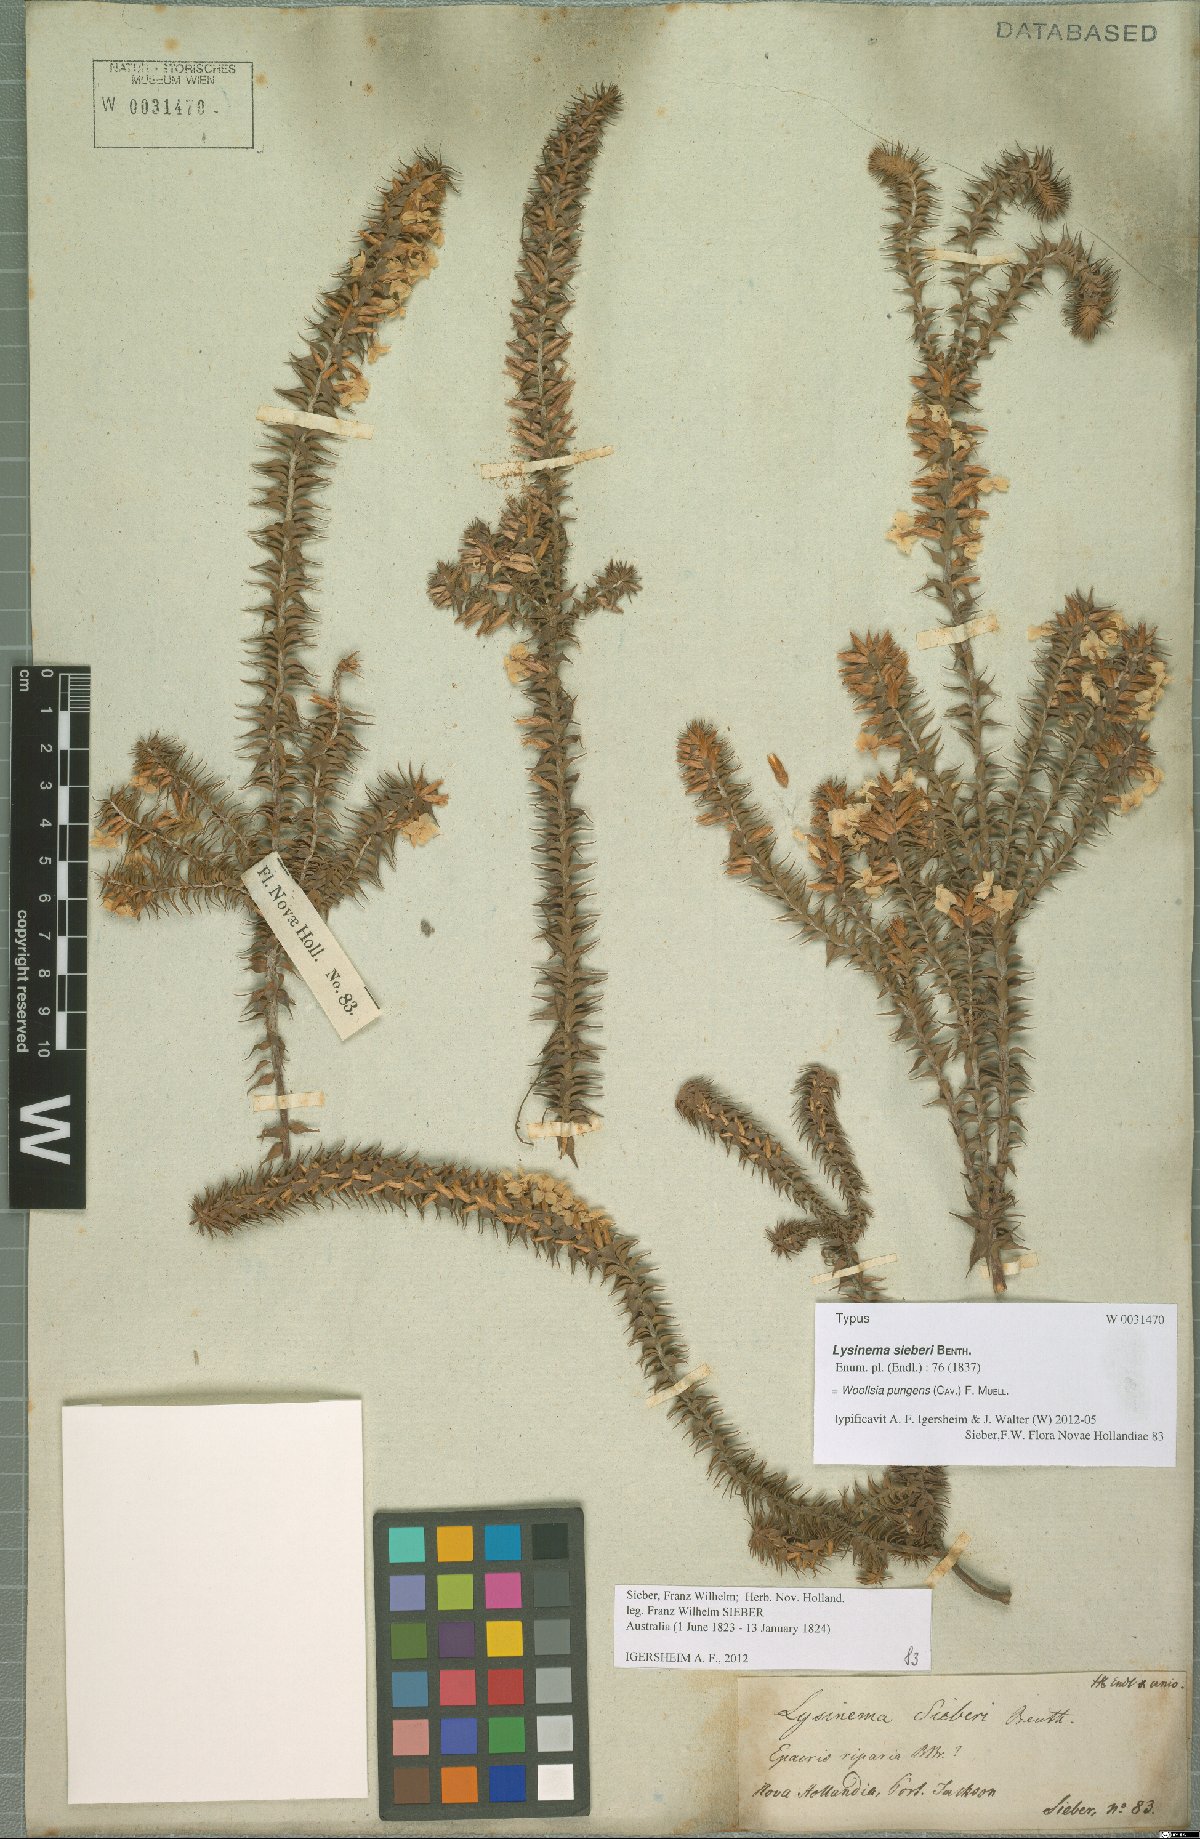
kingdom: Plantae
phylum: Tracheophyta
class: Magnoliopsida
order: Ericales
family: Ericaceae
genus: Woollsia
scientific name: Woollsia pungens
